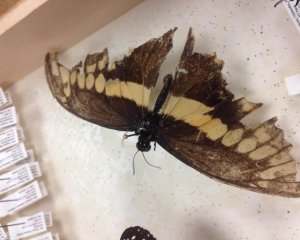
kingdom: Animalia
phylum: Arthropoda
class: Insecta
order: Lepidoptera
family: Papilionidae
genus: Papilio
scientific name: Papilio cresphontes
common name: Eastern Giant Swallowtail
